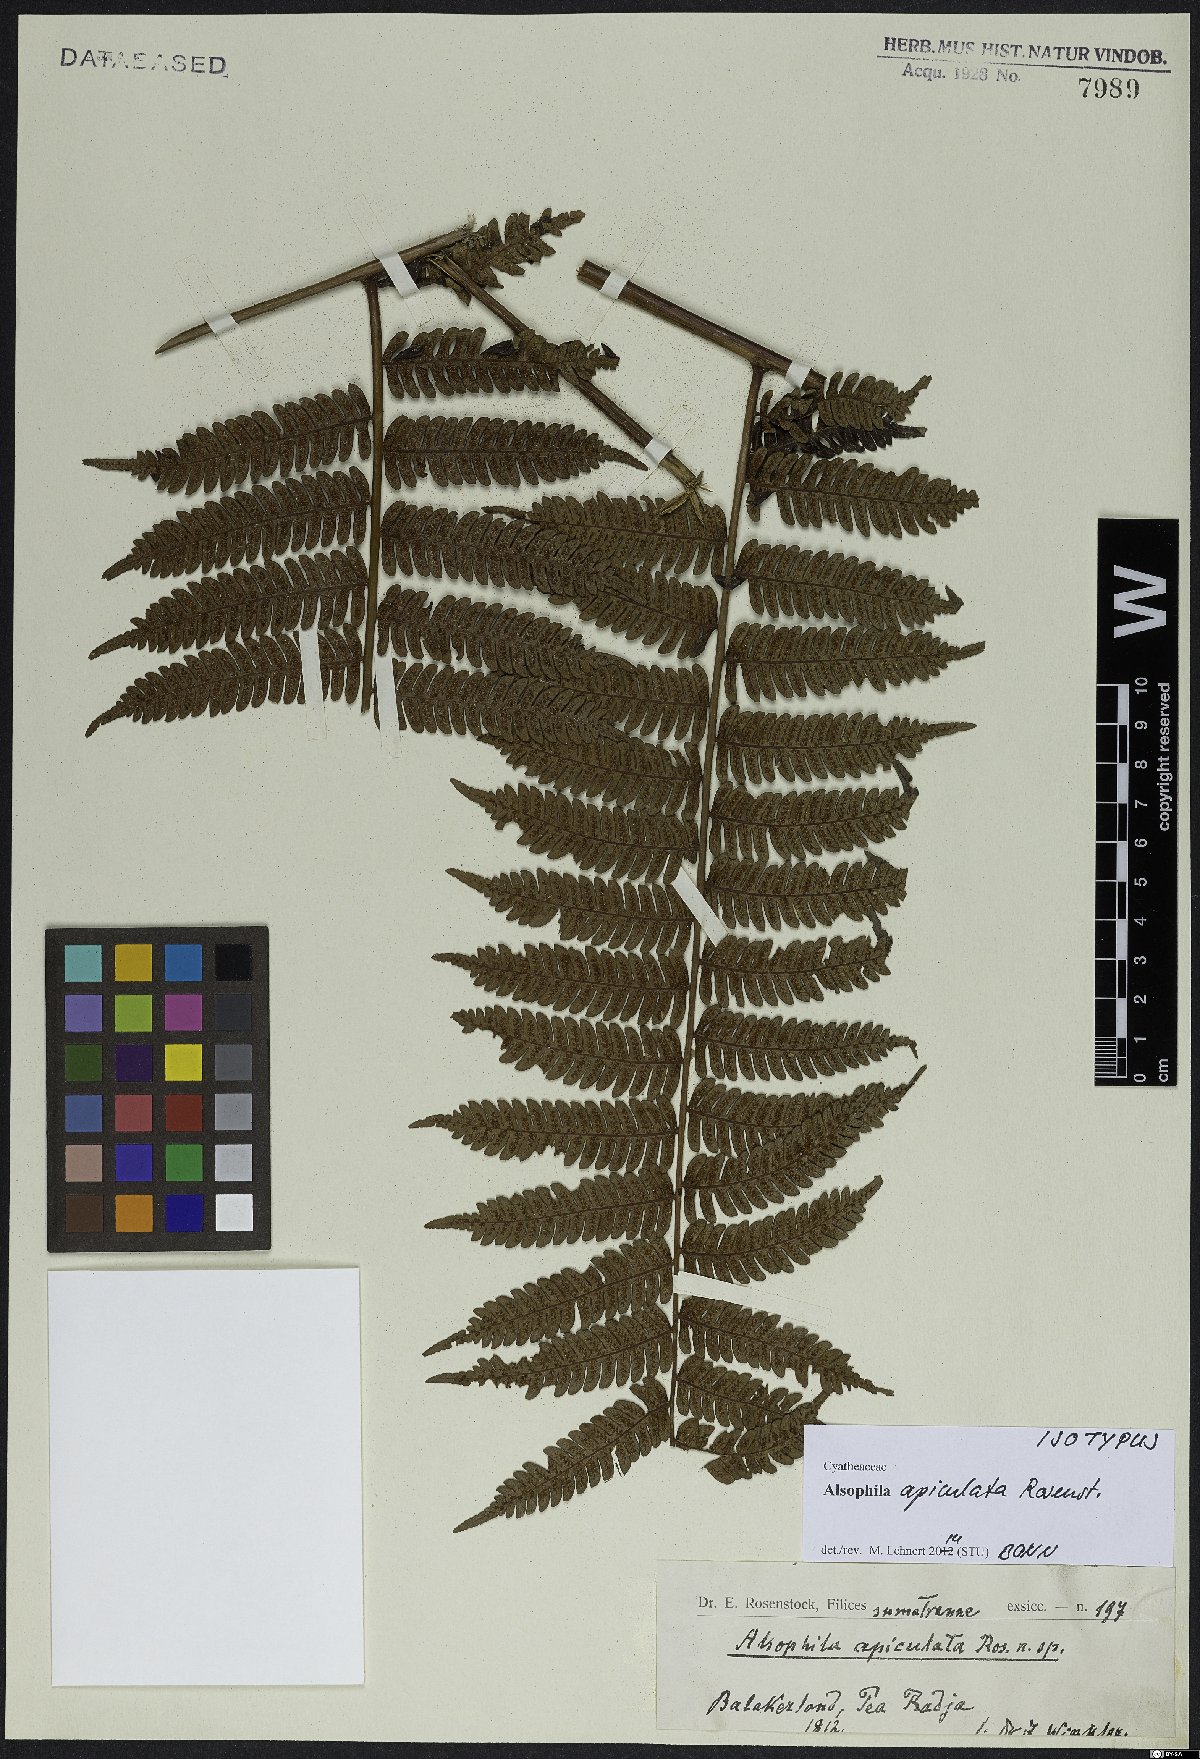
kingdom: Plantae
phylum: Tracheophyta
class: Polypodiopsida
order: Cyatheales
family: Cyatheaceae
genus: Alsophila
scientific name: Alsophila apiculata
